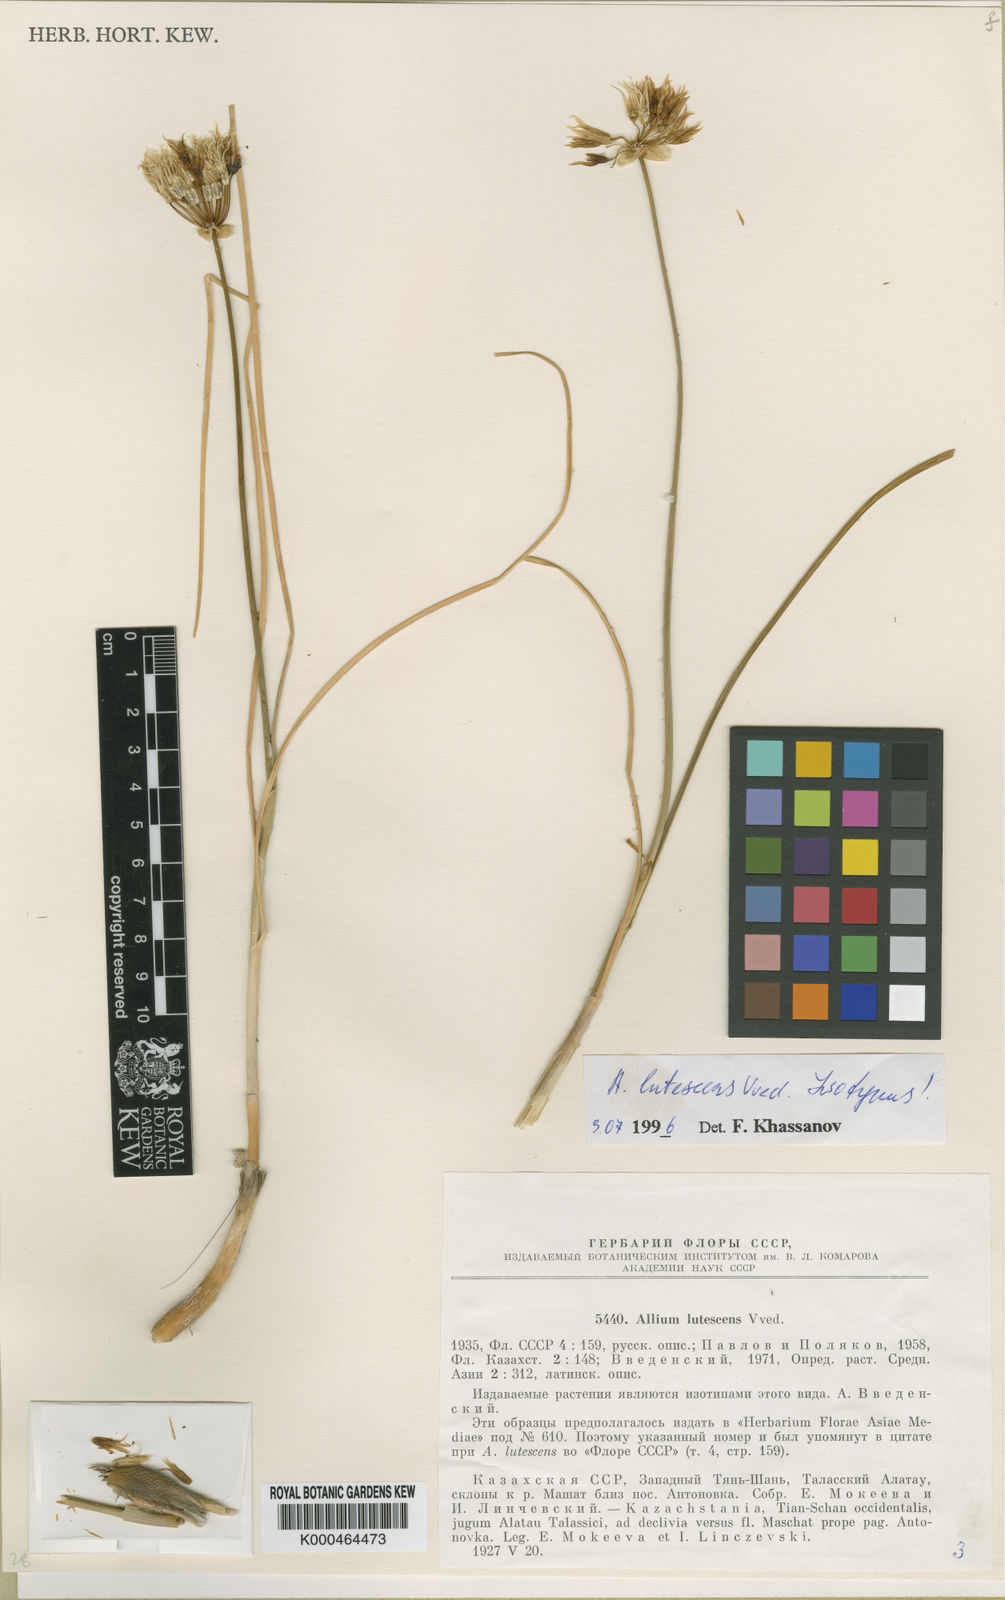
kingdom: Plantae
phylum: Tracheophyta
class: Liliopsida
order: Asparagales
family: Amaryllidaceae
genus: Allium
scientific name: Allium lutescens
